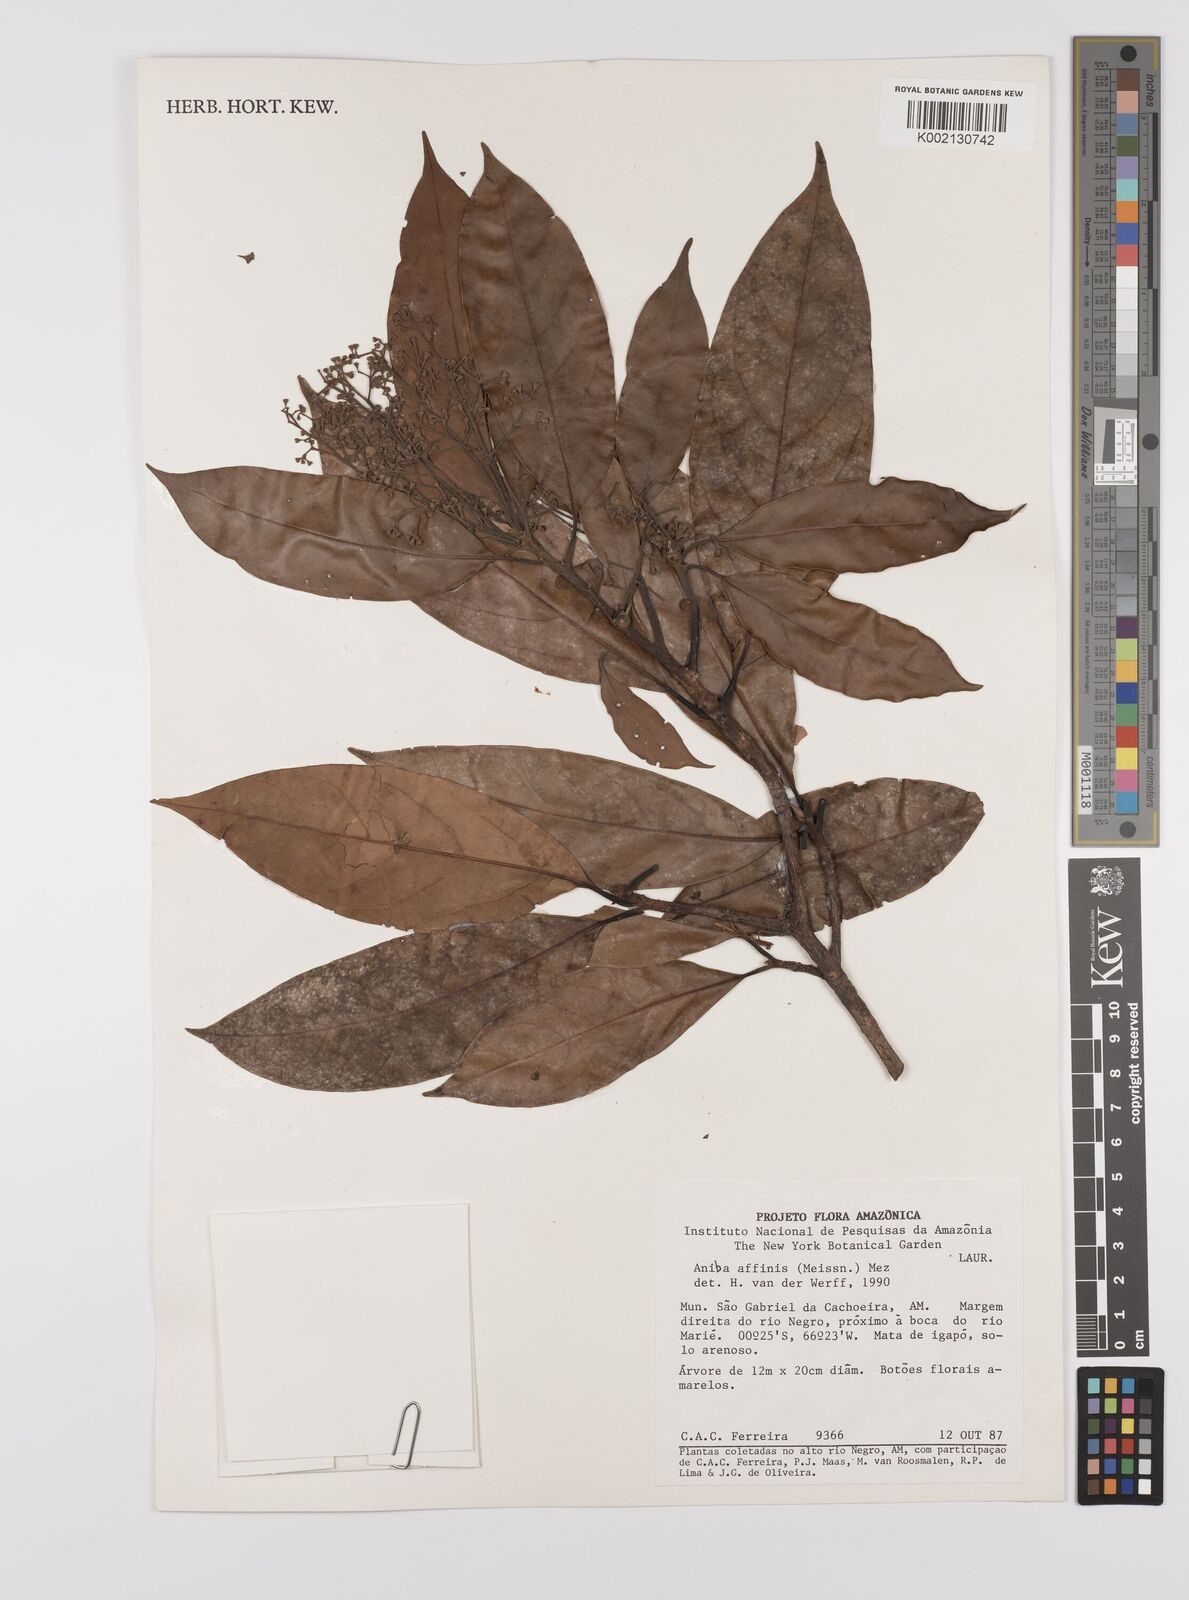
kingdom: Plantae
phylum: Tracheophyta
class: Magnoliopsida
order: Laurales
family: Lauraceae
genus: Aniba
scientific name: Aniba affinis
